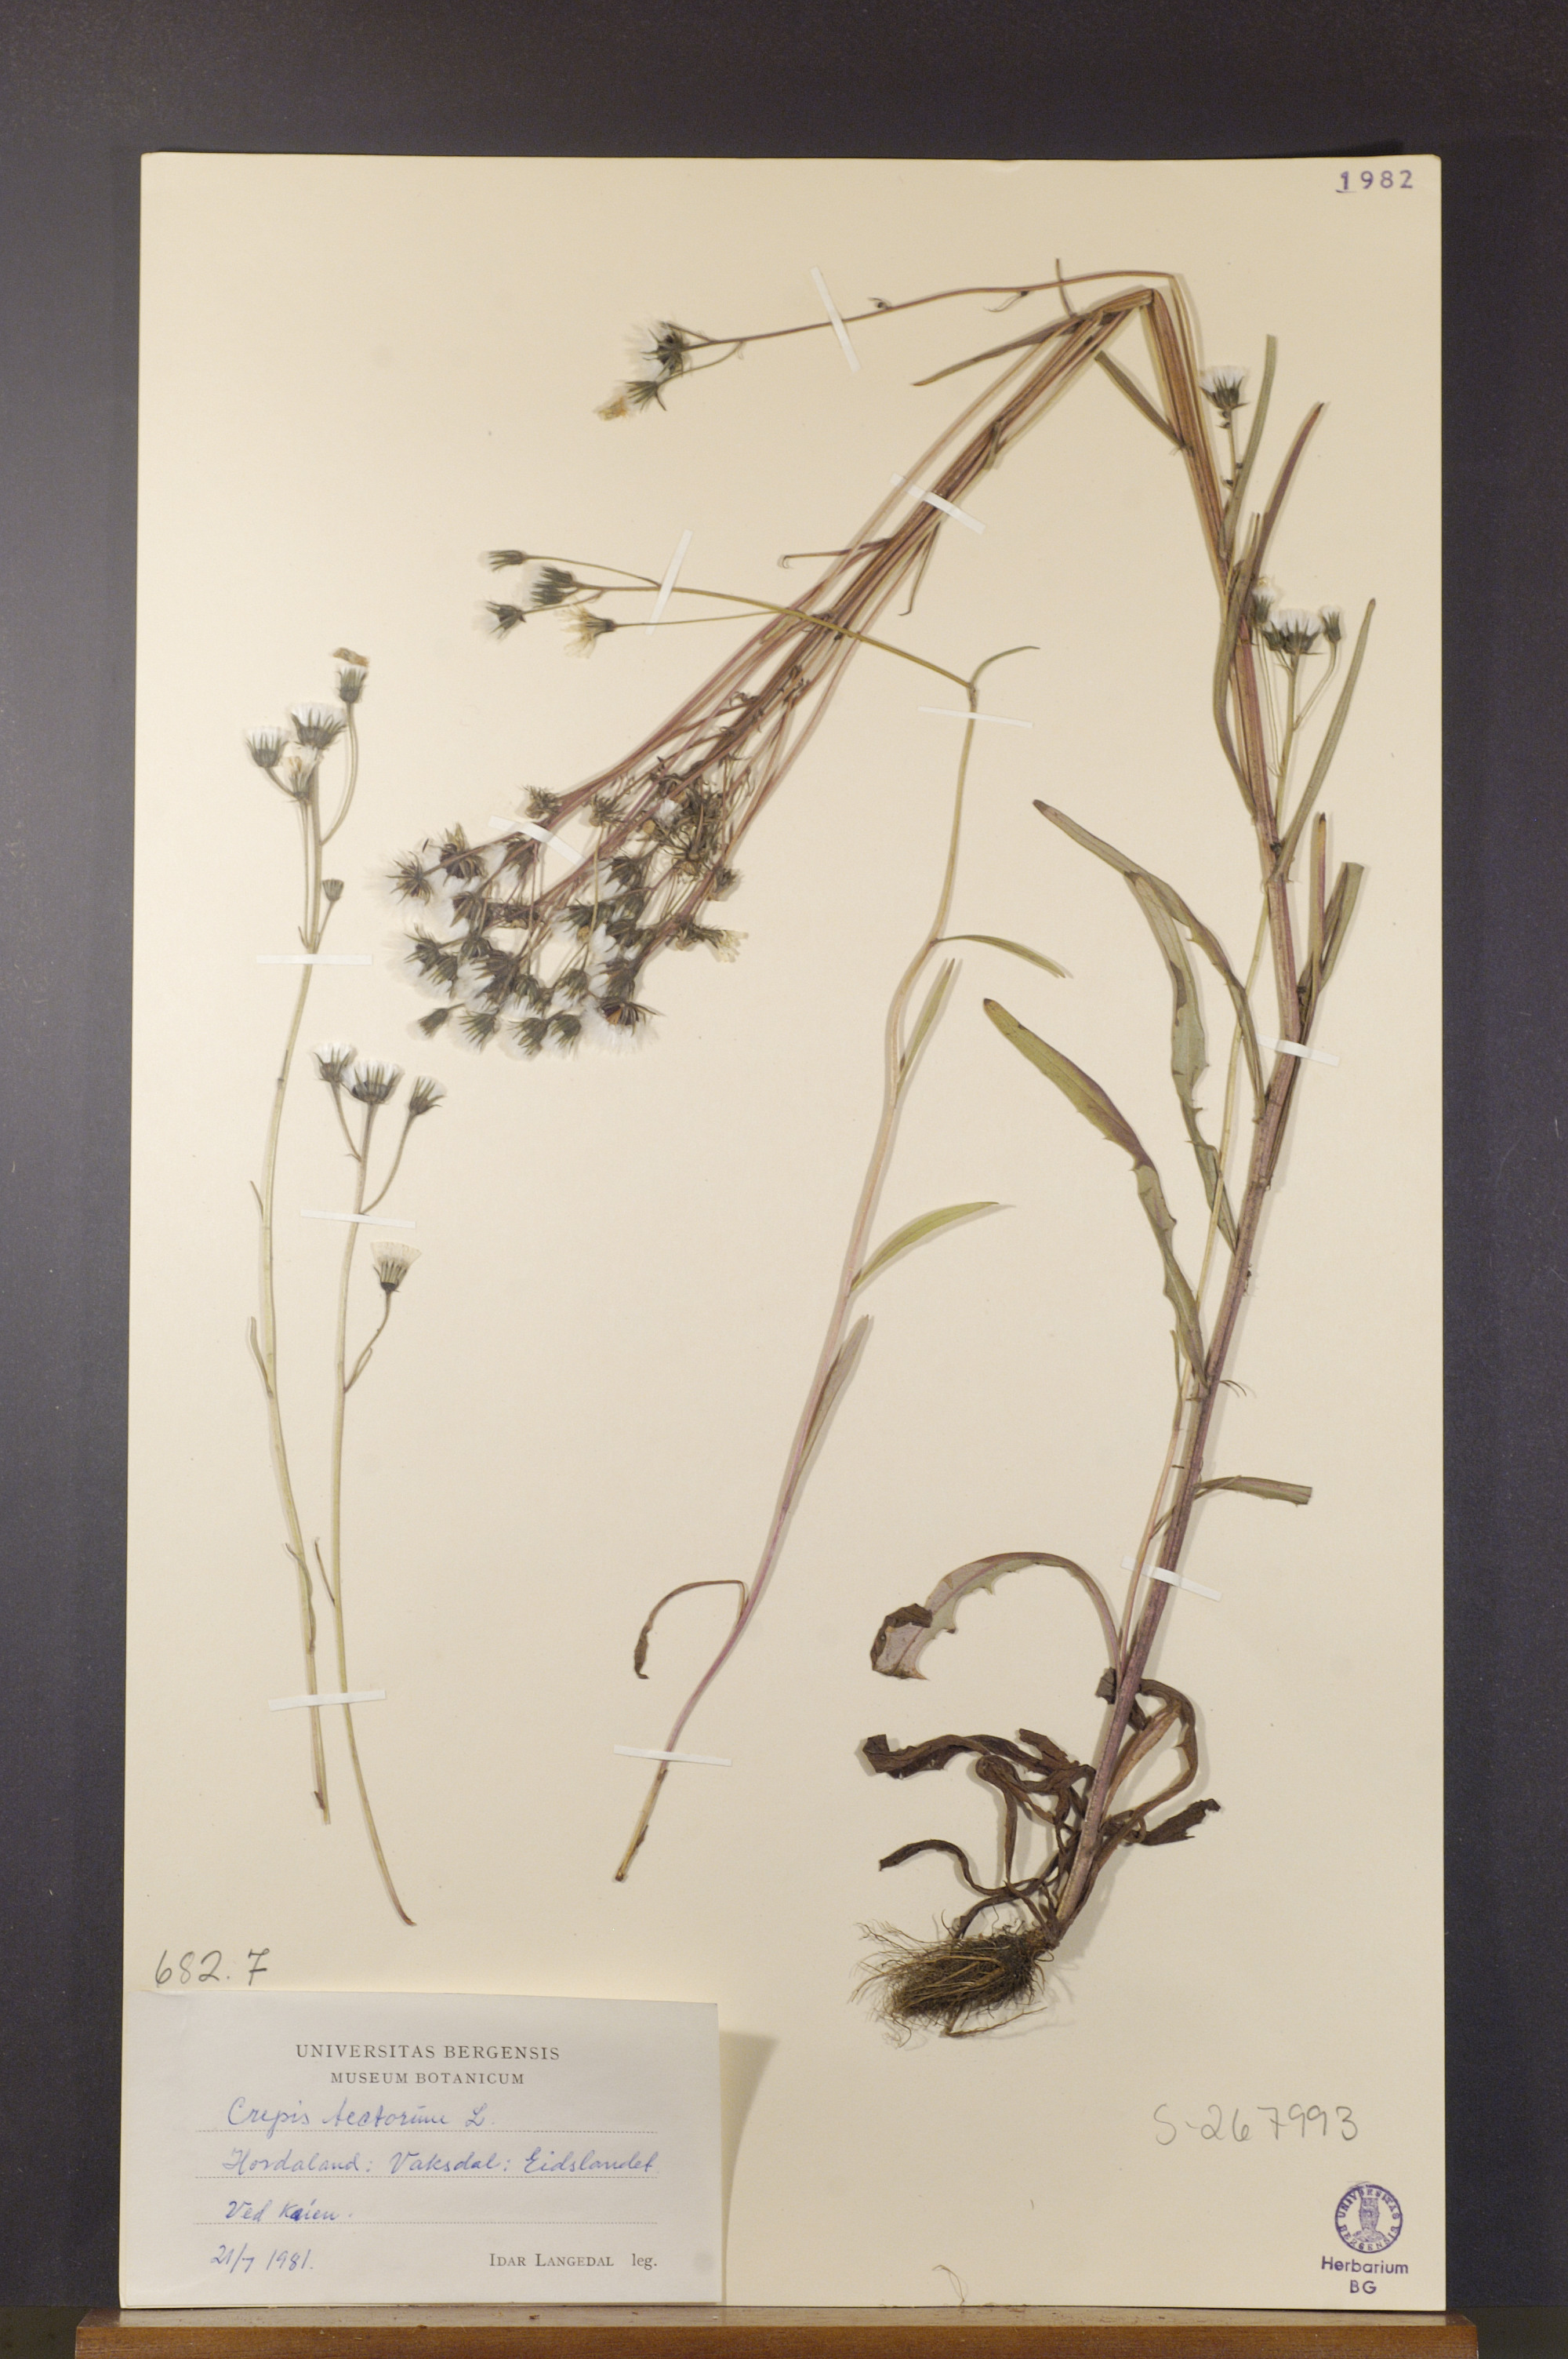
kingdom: Plantae
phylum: Tracheophyta
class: Magnoliopsida
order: Asterales
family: Asteraceae
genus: Crepis
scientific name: Crepis tectorum
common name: Narrow-leaved hawk's-beard
